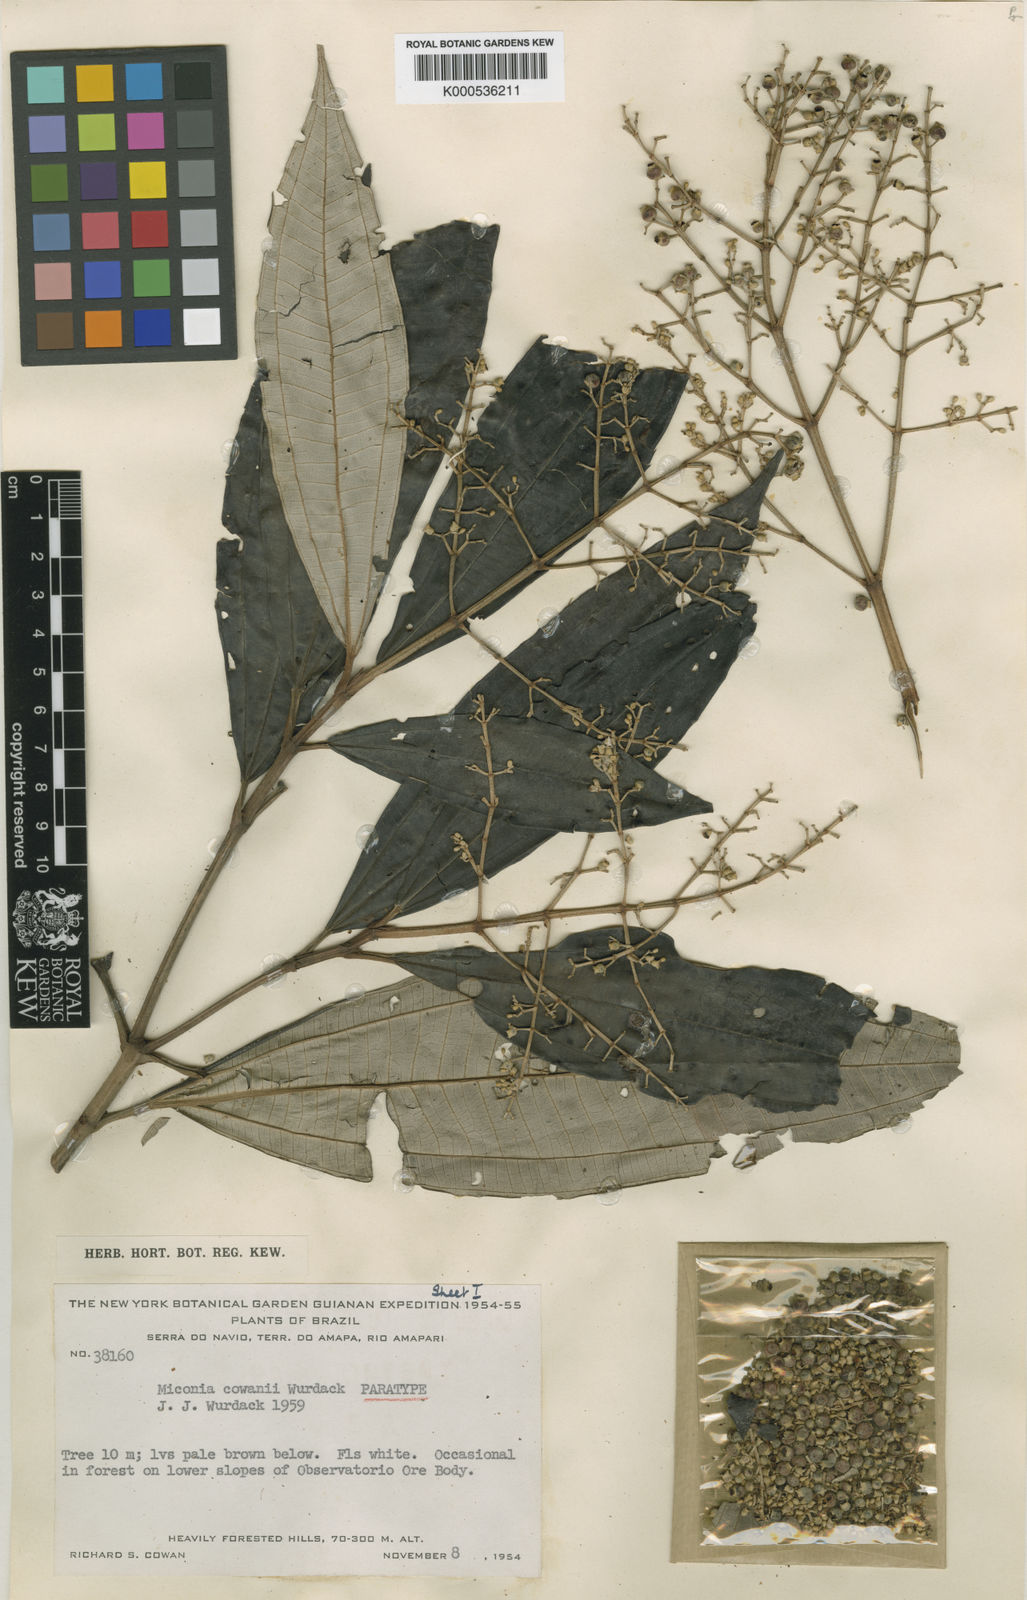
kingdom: Plantae
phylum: Tracheophyta
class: Magnoliopsida
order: Myrtales
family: Melastomataceae
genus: Miconia
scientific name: Miconia cowanii
